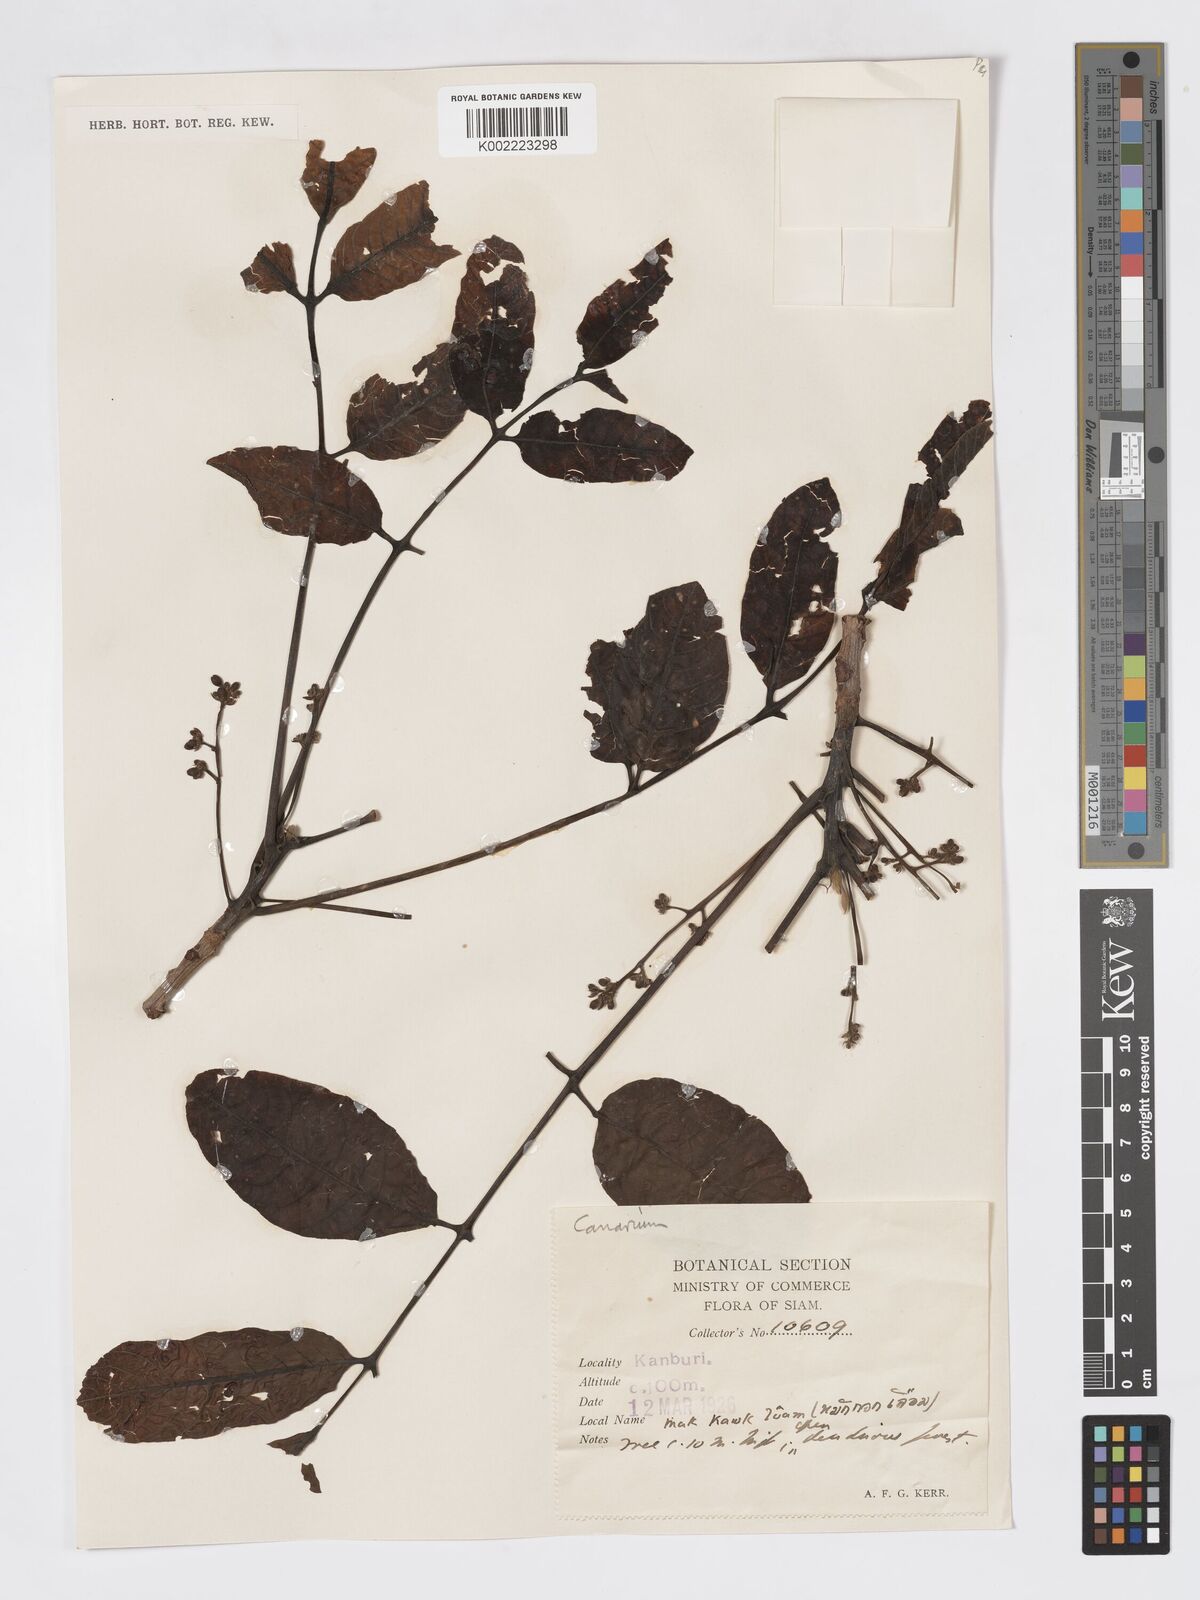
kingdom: Plantae
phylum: Tracheophyta
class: Magnoliopsida
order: Sapindales
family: Burseraceae
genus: Canarium
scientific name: Canarium subulatum
